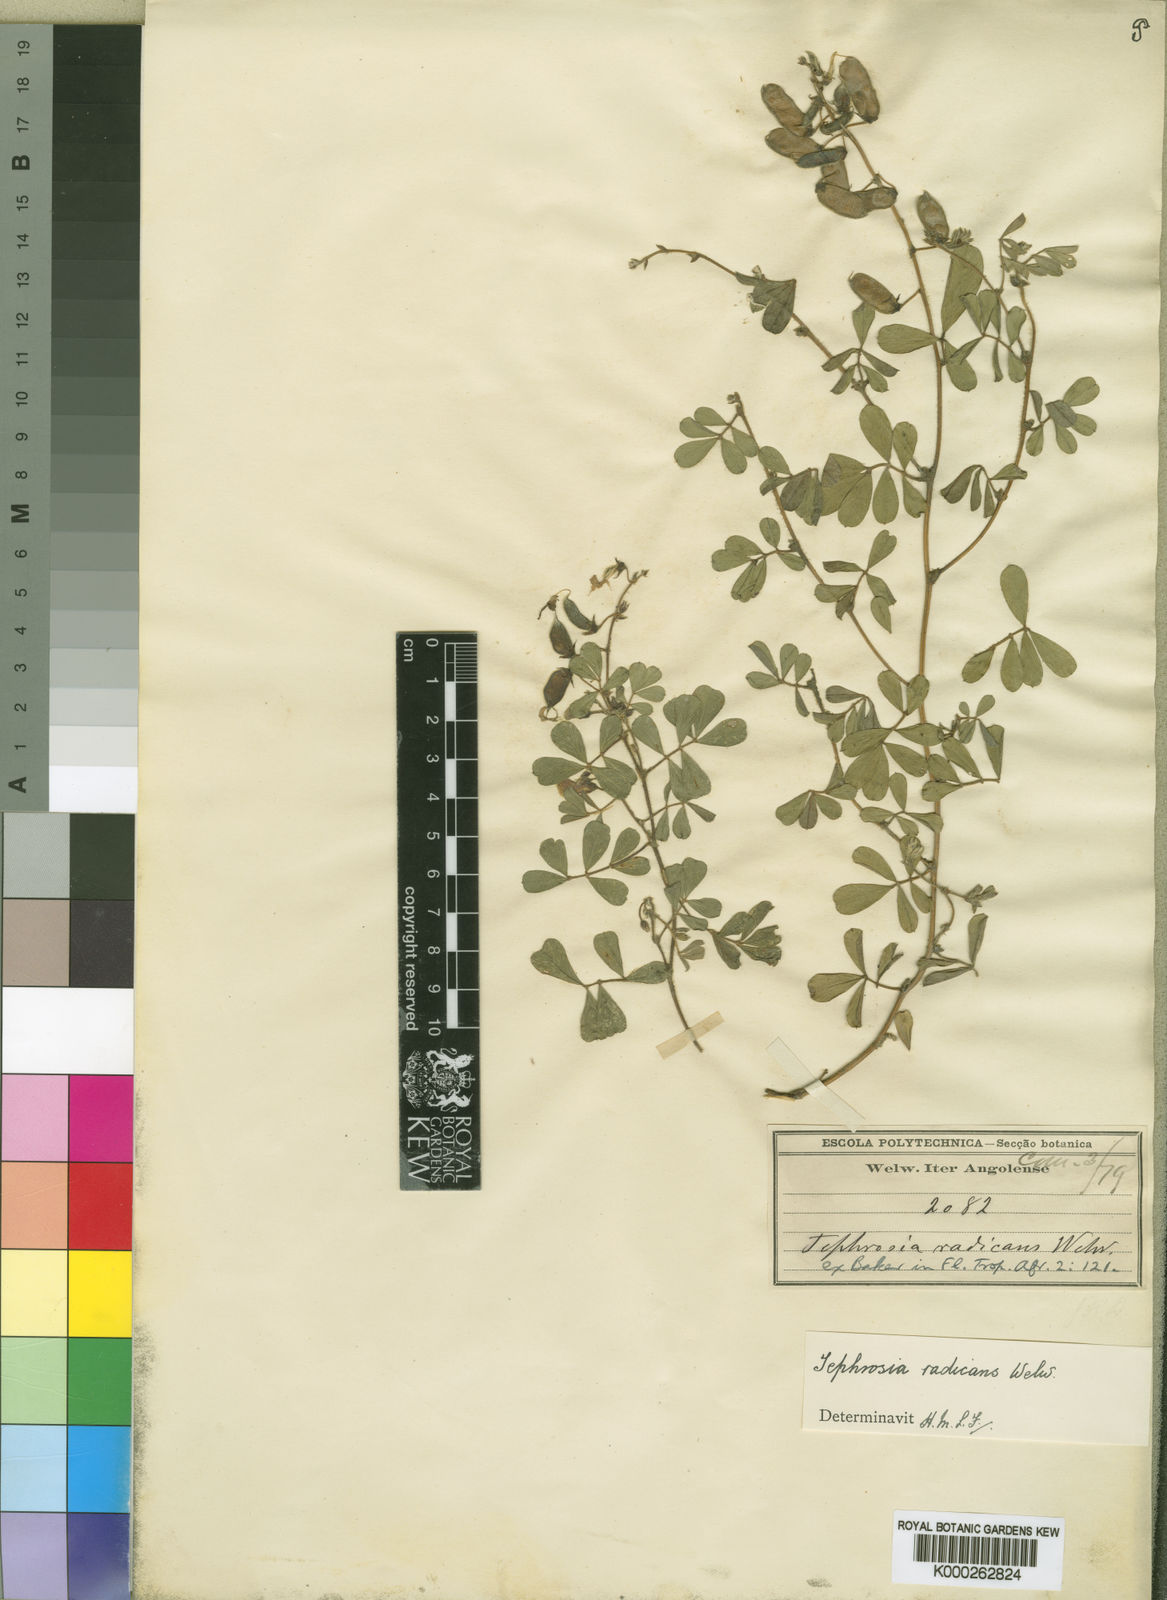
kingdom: Plantae
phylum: Tracheophyta
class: Magnoliopsida
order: Fabales
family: Fabaceae
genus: Tephrosia
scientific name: Tephrosia
